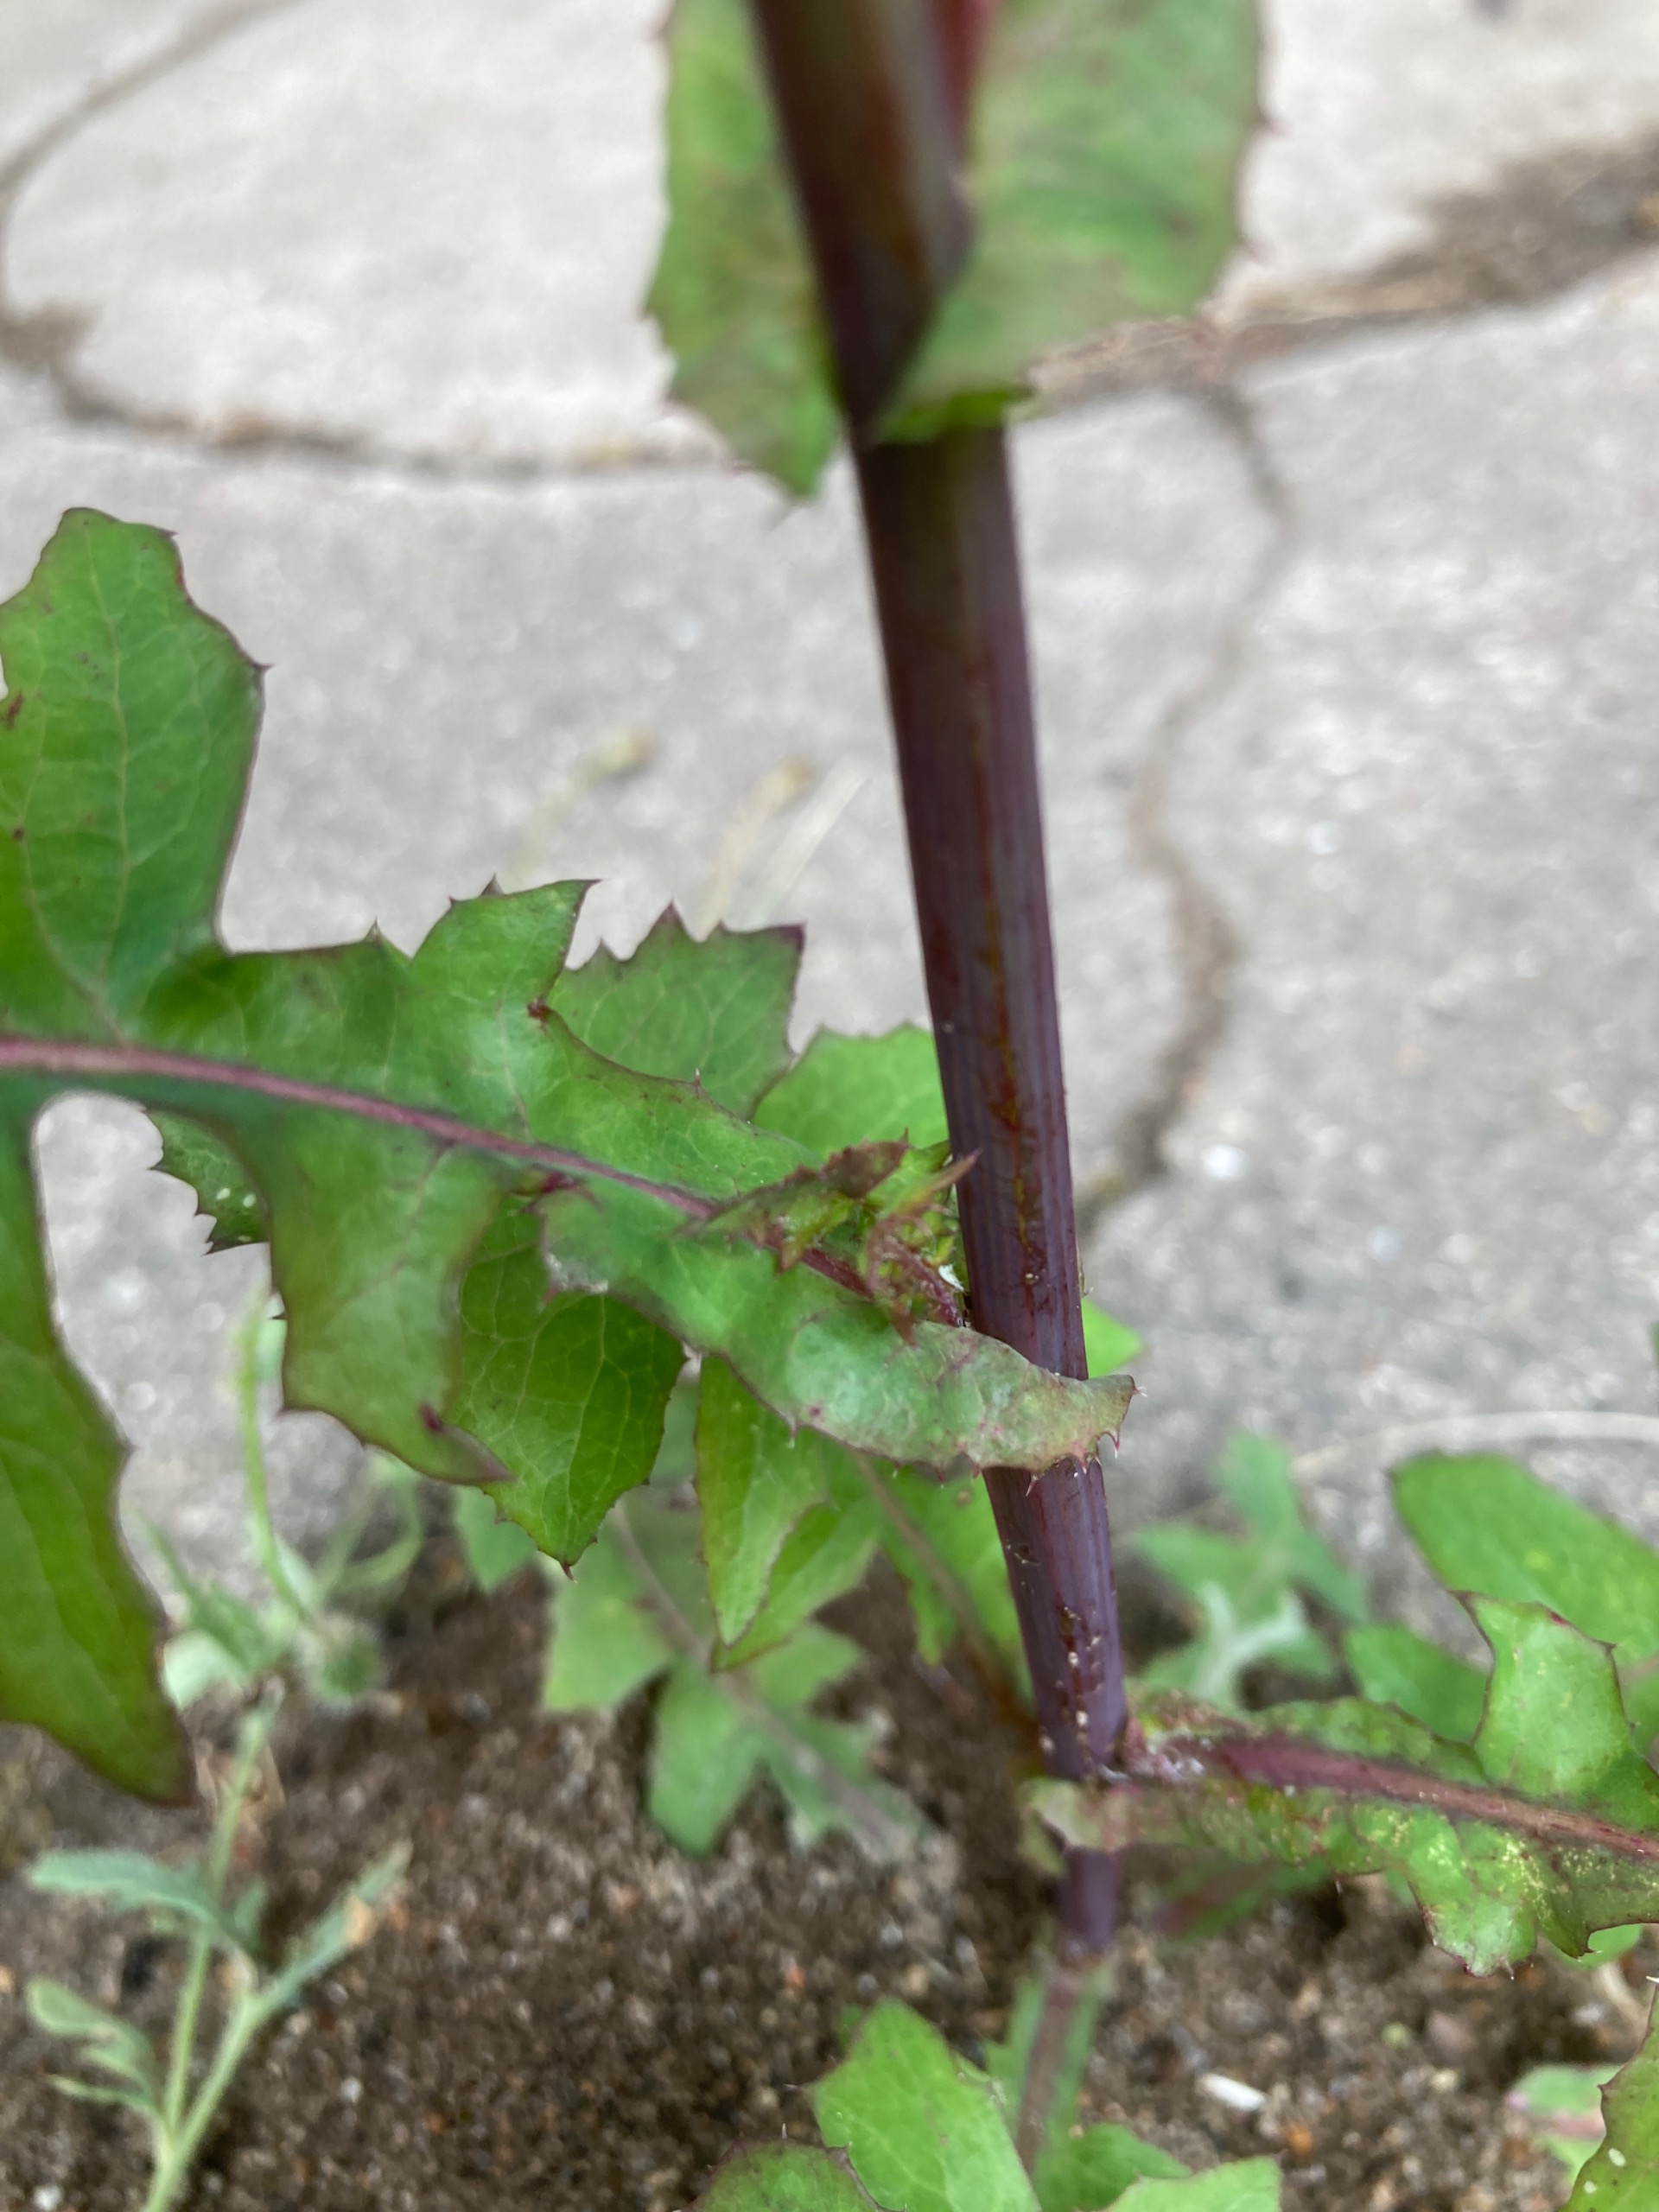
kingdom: Plantae
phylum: Tracheophyta
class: Magnoliopsida
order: Asterales
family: Asteraceae
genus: Sonchus
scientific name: Sonchus oleraceus
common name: Almindelig svinemælk
